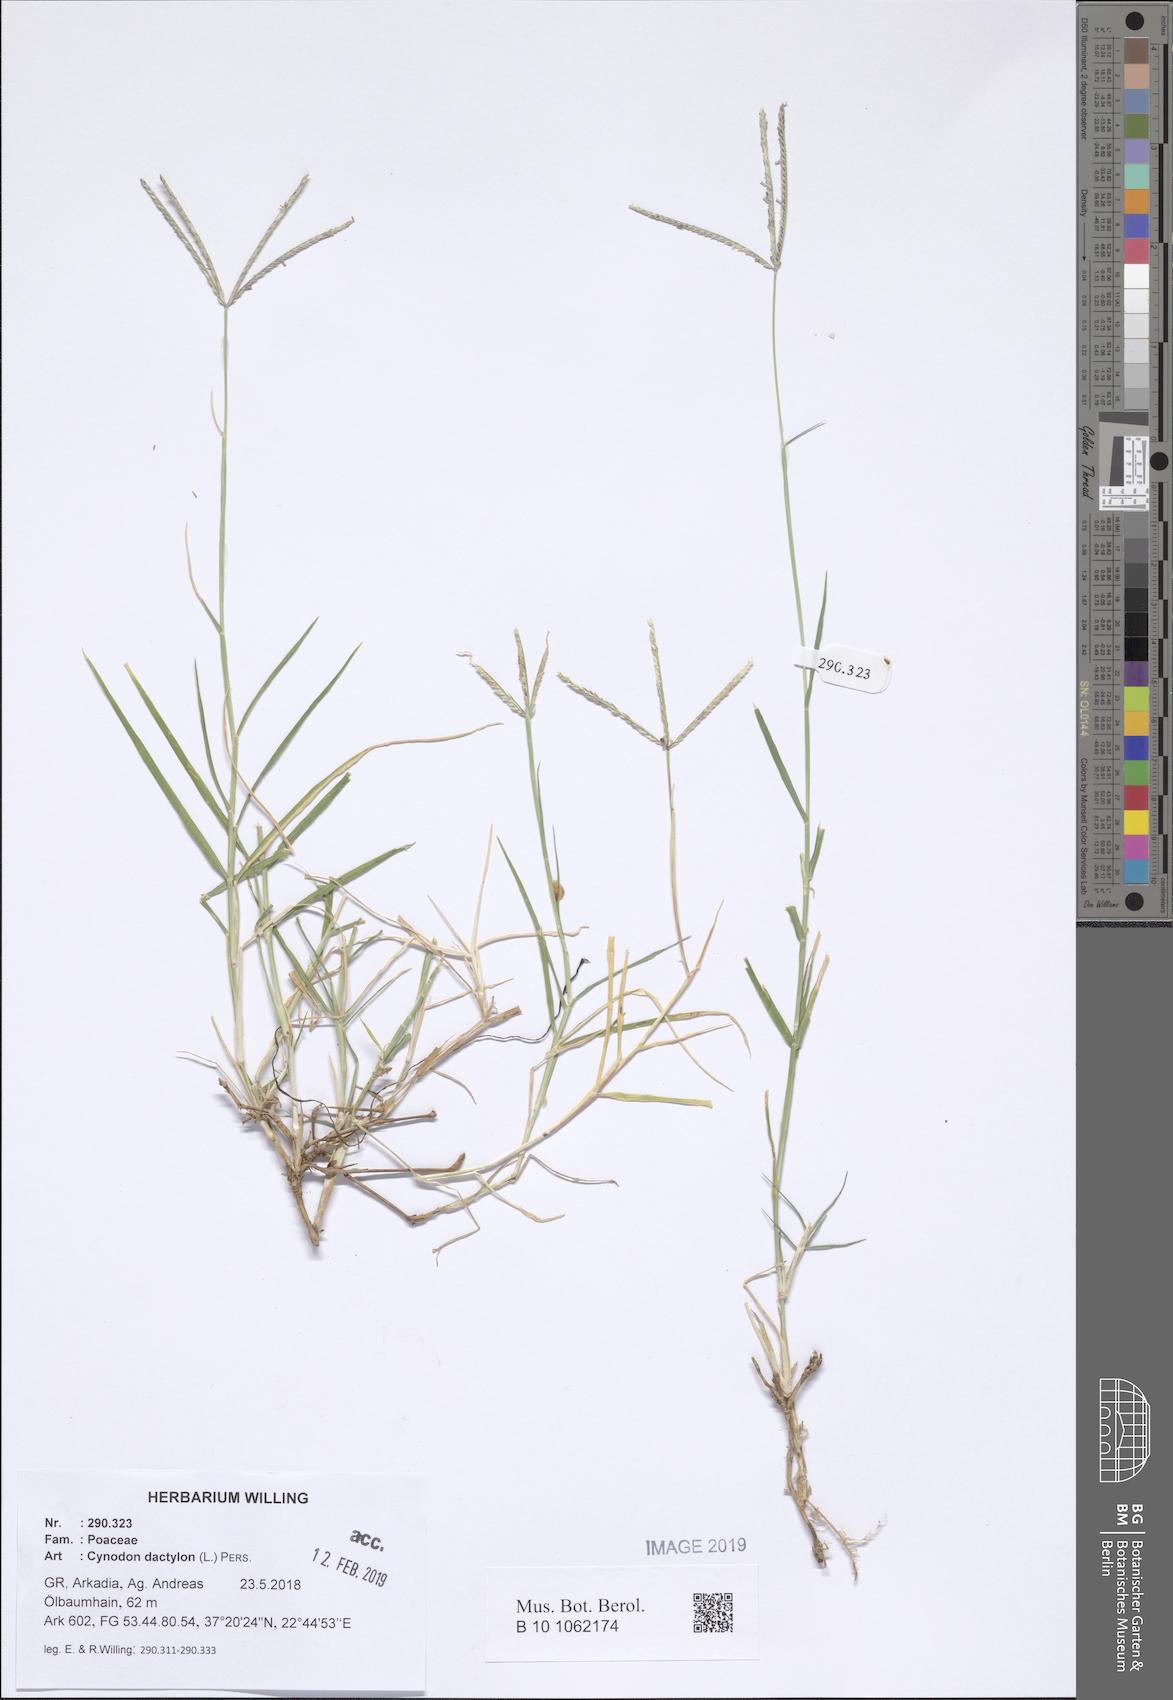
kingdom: Plantae
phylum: Tracheophyta
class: Liliopsida
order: Poales
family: Poaceae
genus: Cynodon
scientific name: Cynodon dactylon
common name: Bermuda grass
